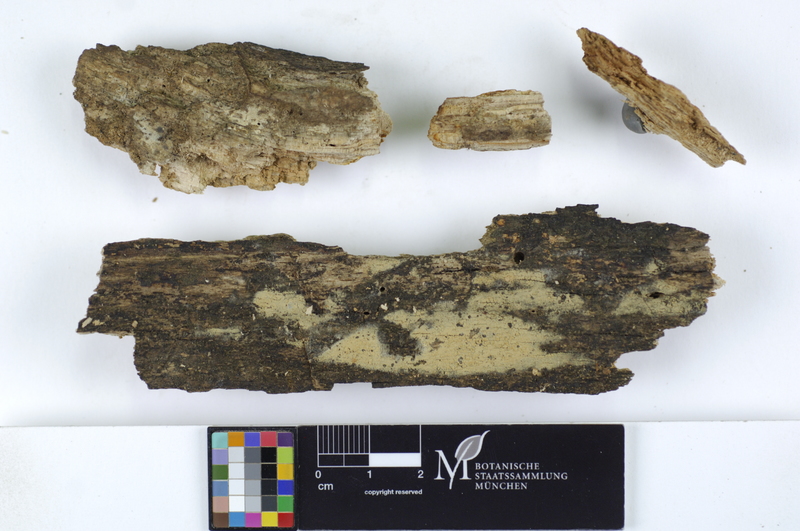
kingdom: Fungi
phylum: Basidiomycota
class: Agaricomycetes
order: Trechisporales
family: Hydnodontaceae
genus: Brevicellicium
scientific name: Brevicellicium olivascens
